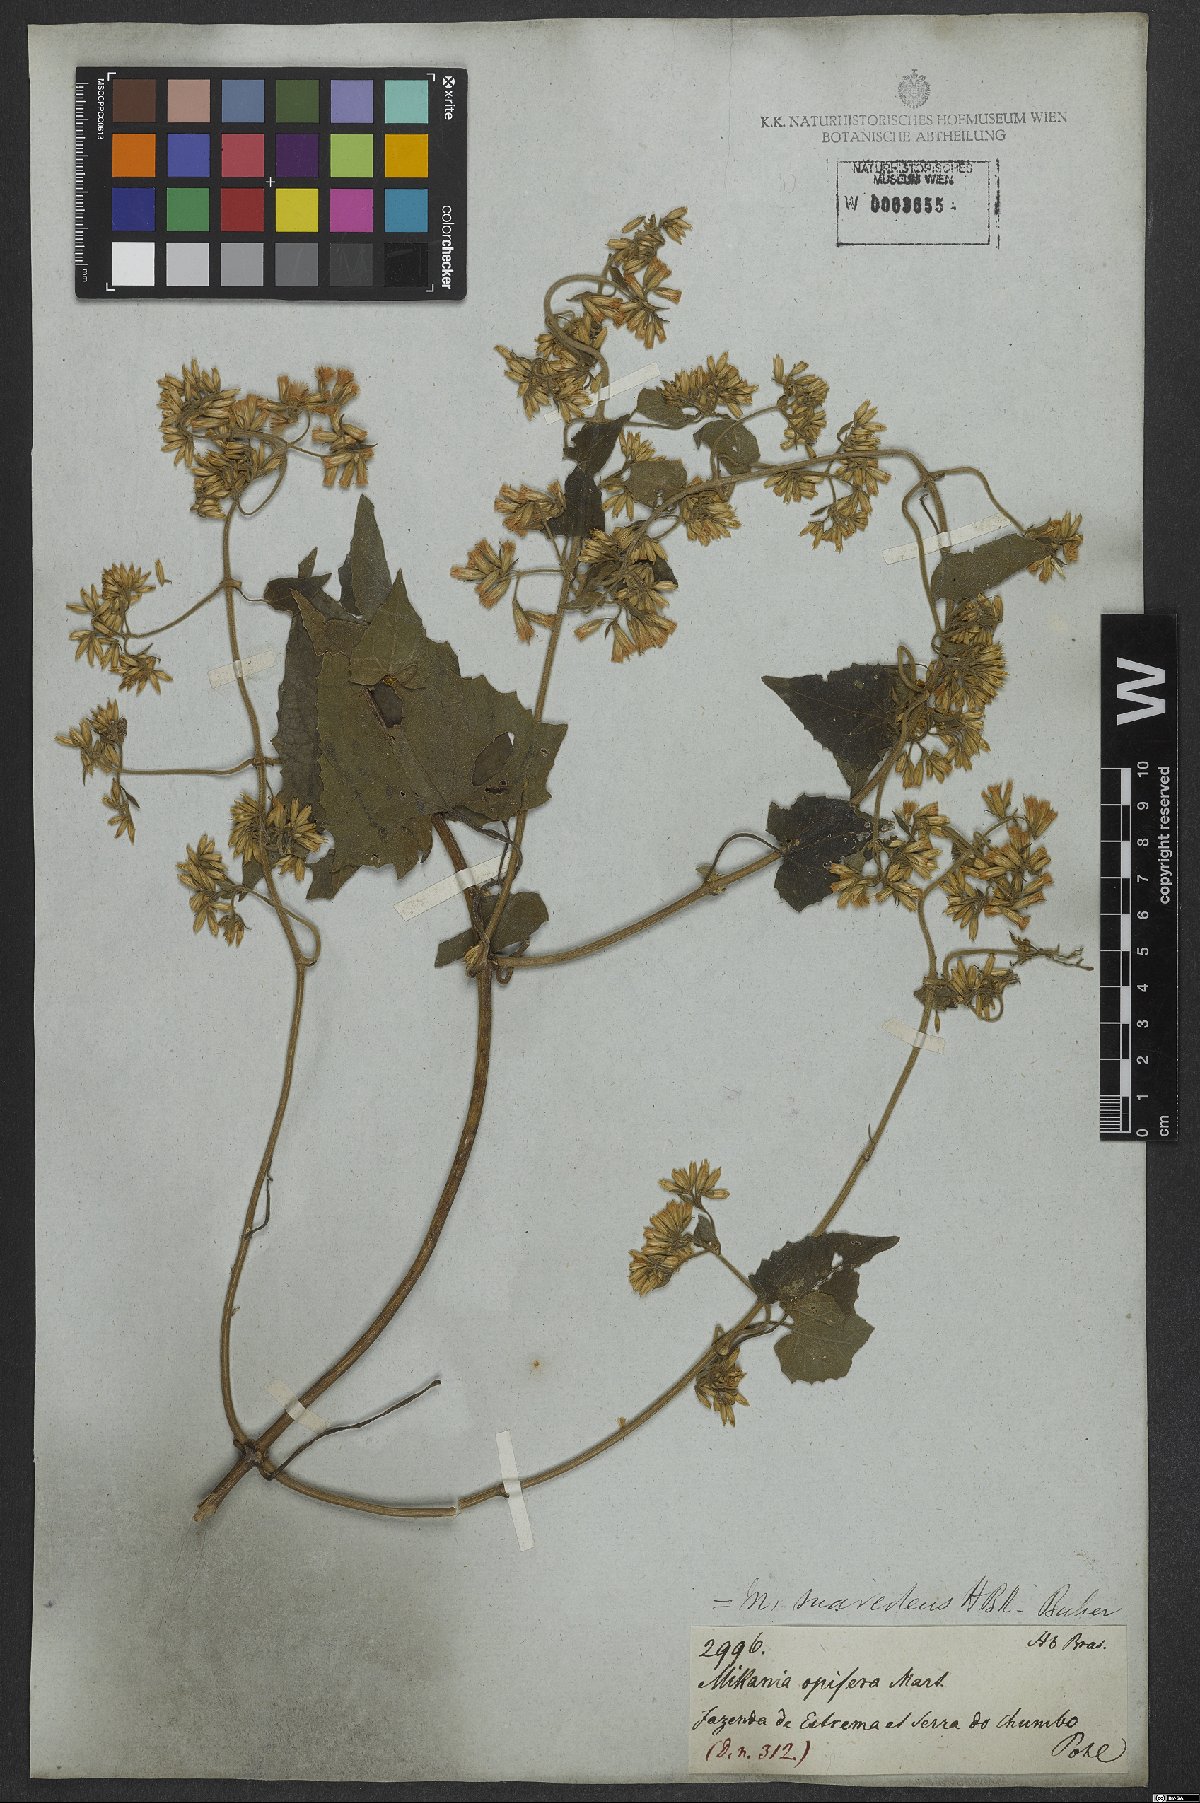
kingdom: Plantae
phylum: Tracheophyta
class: Magnoliopsida
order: Asterales
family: Asteraceae
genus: Mikania
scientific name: Mikania cordifolia
